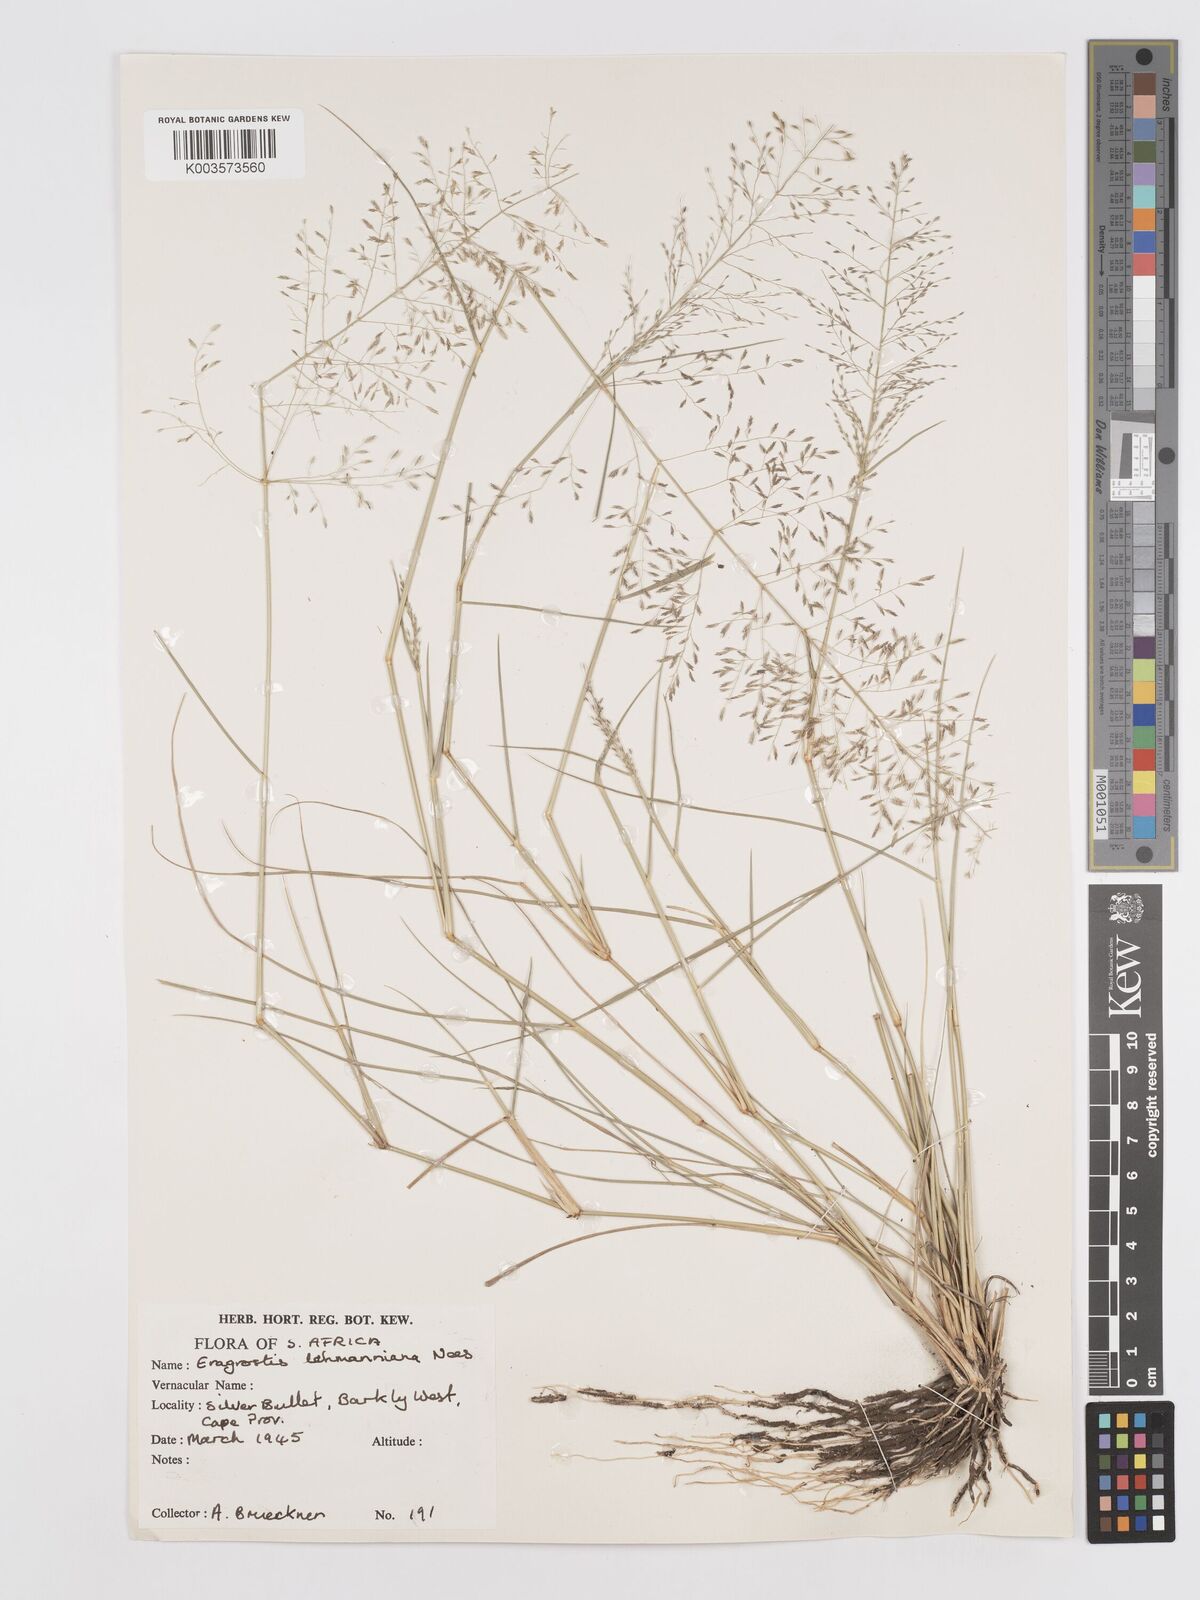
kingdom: Plantae
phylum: Tracheophyta
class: Liliopsida
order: Poales
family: Poaceae
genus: Eragrostis
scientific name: Eragrostis lehmanniana
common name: Lehmann lovegrass
